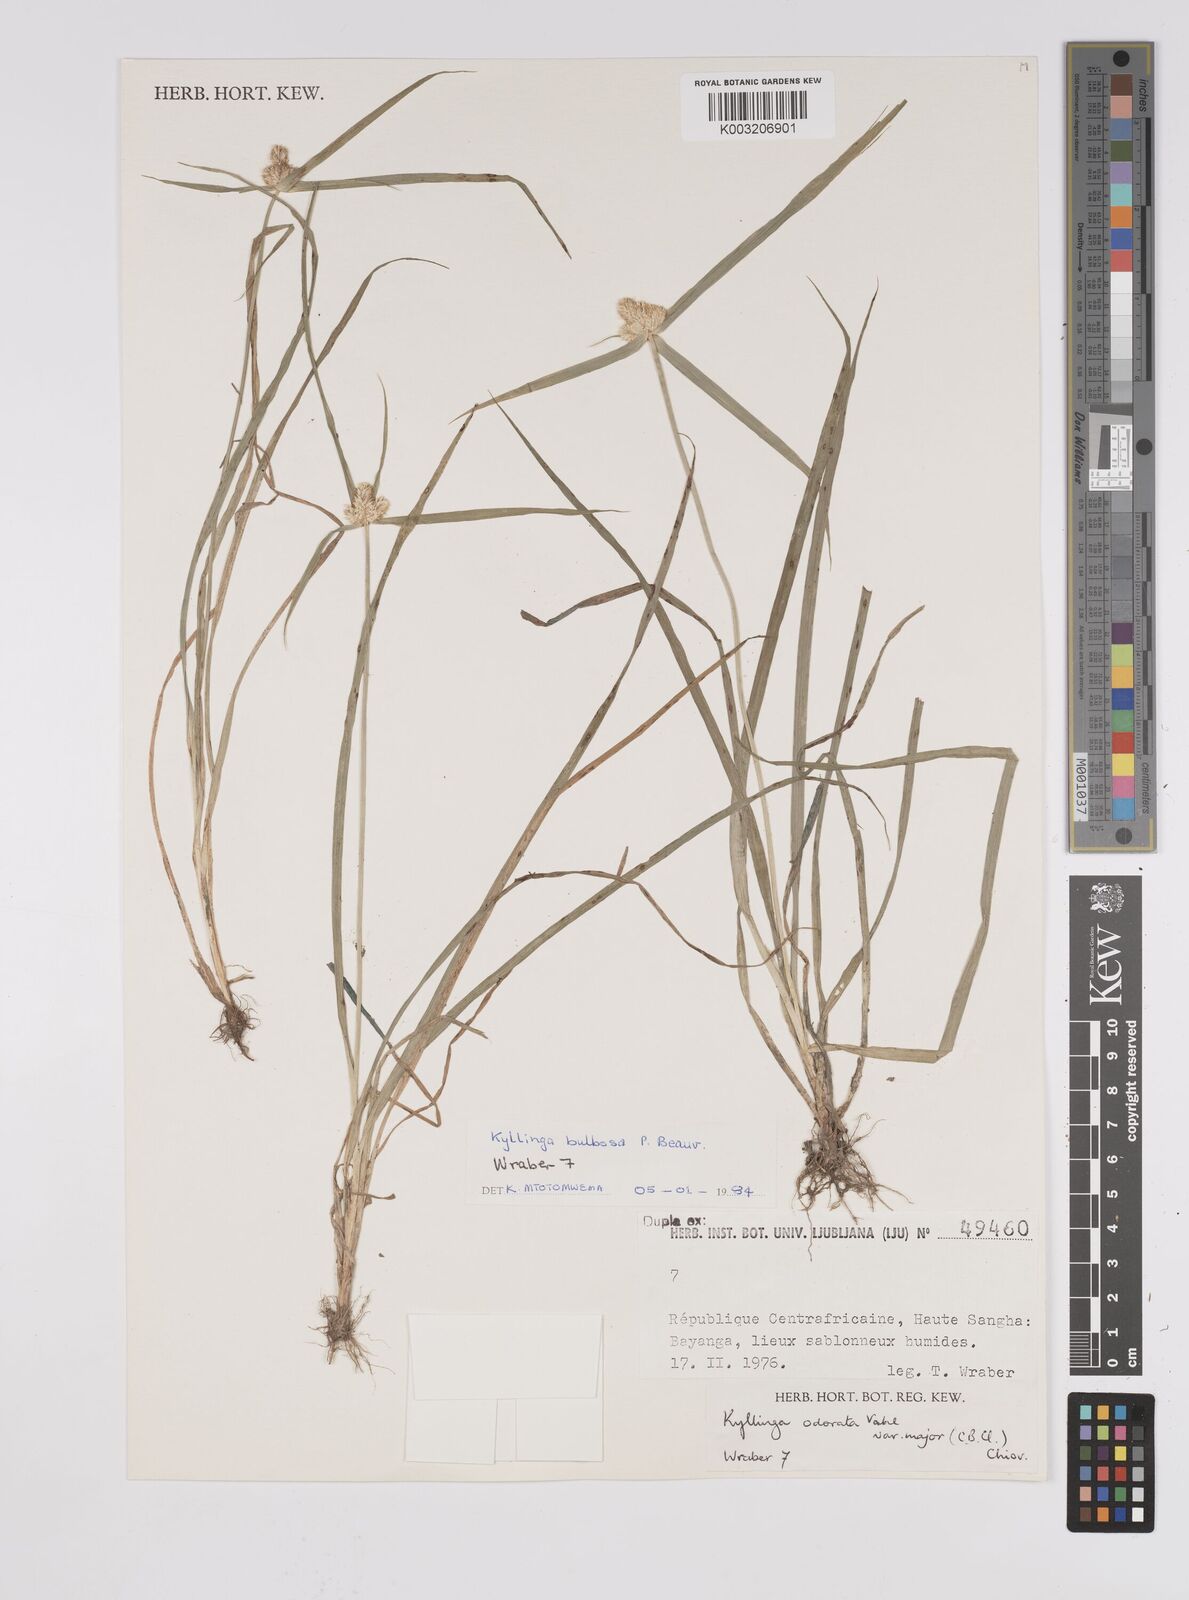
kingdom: Plantae
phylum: Tracheophyta
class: Liliopsida
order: Poales
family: Cyperaceae
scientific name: Cyperaceae
